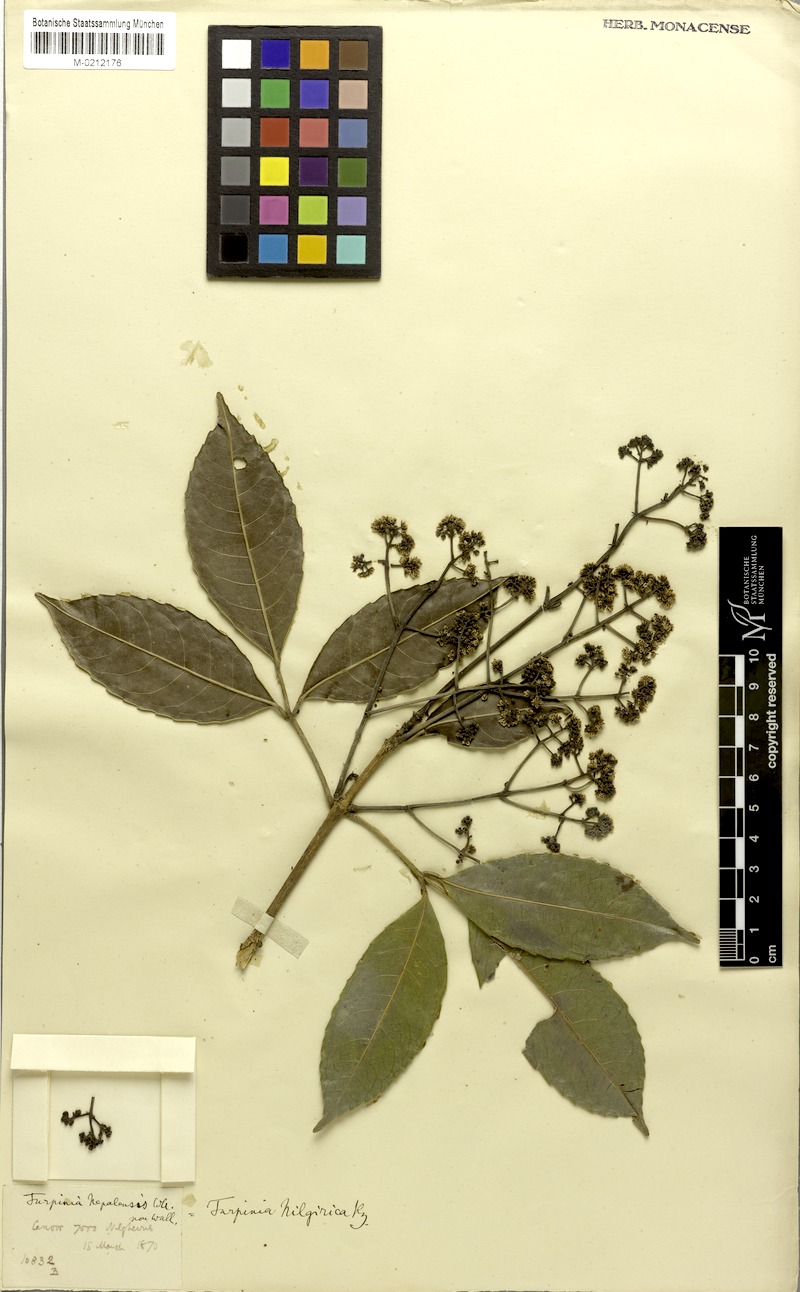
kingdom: Plantae
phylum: Tracheophyta
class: Magnoliopsida
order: Crossosomatales
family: Staphyleaceae
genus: Turpinia
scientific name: Turpinia
